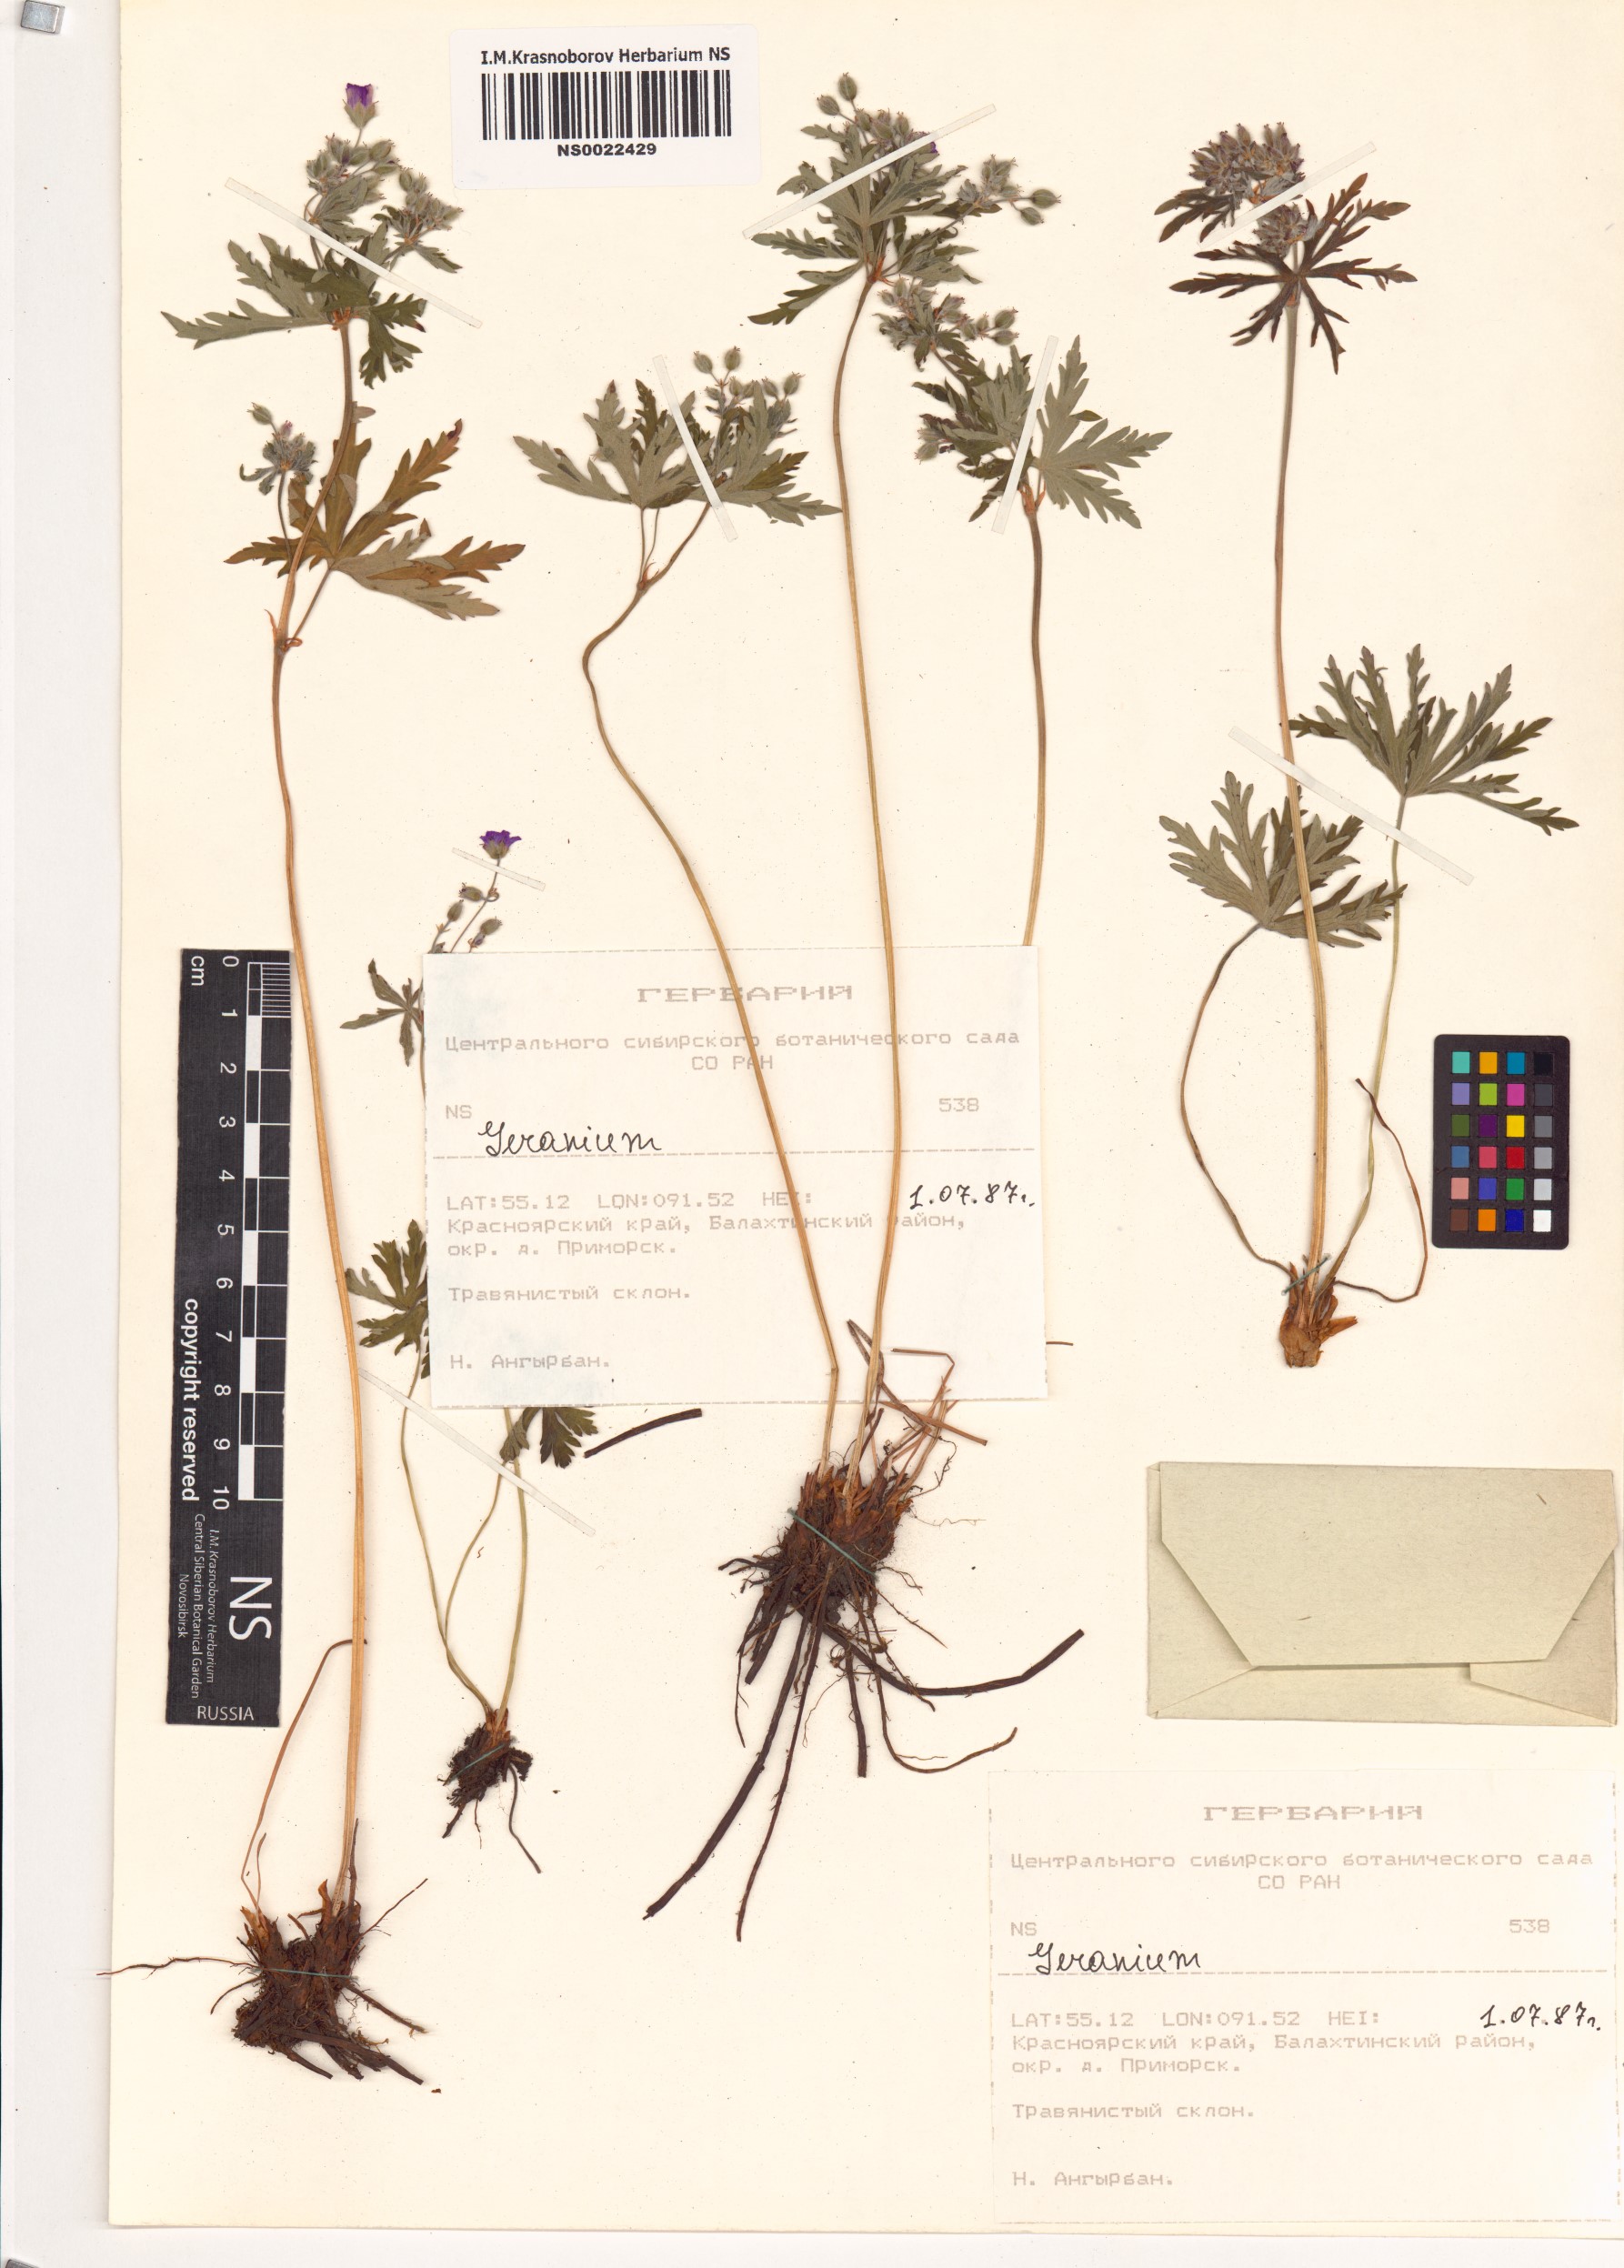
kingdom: Plantae
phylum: Tracheophyta
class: Magnoliopsida
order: Geraniales
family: Geraniaceae
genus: Geranium
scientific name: Geranium
